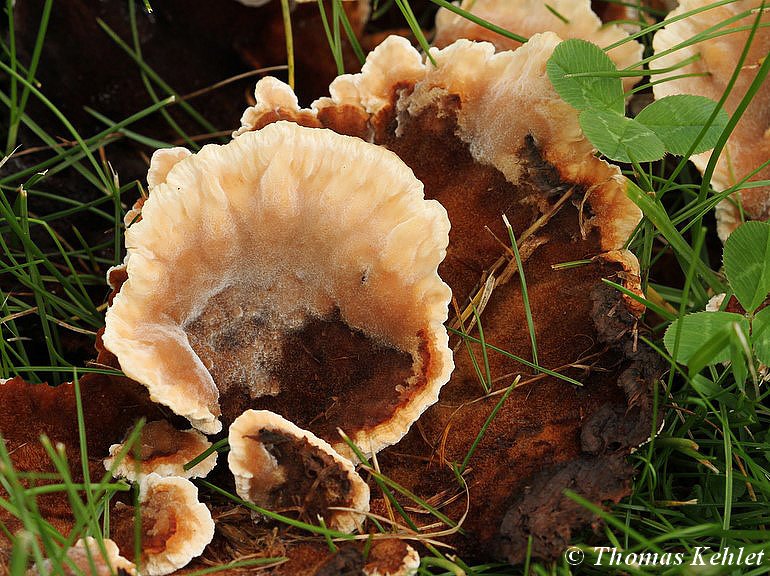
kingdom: Fungi
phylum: Basidiomycota
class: Agaricomycetes
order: Polyporales
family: Podoscyphaceae
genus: Abortiporus
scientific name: Abortiporus biennis
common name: rødmende pjalteporesvamp
